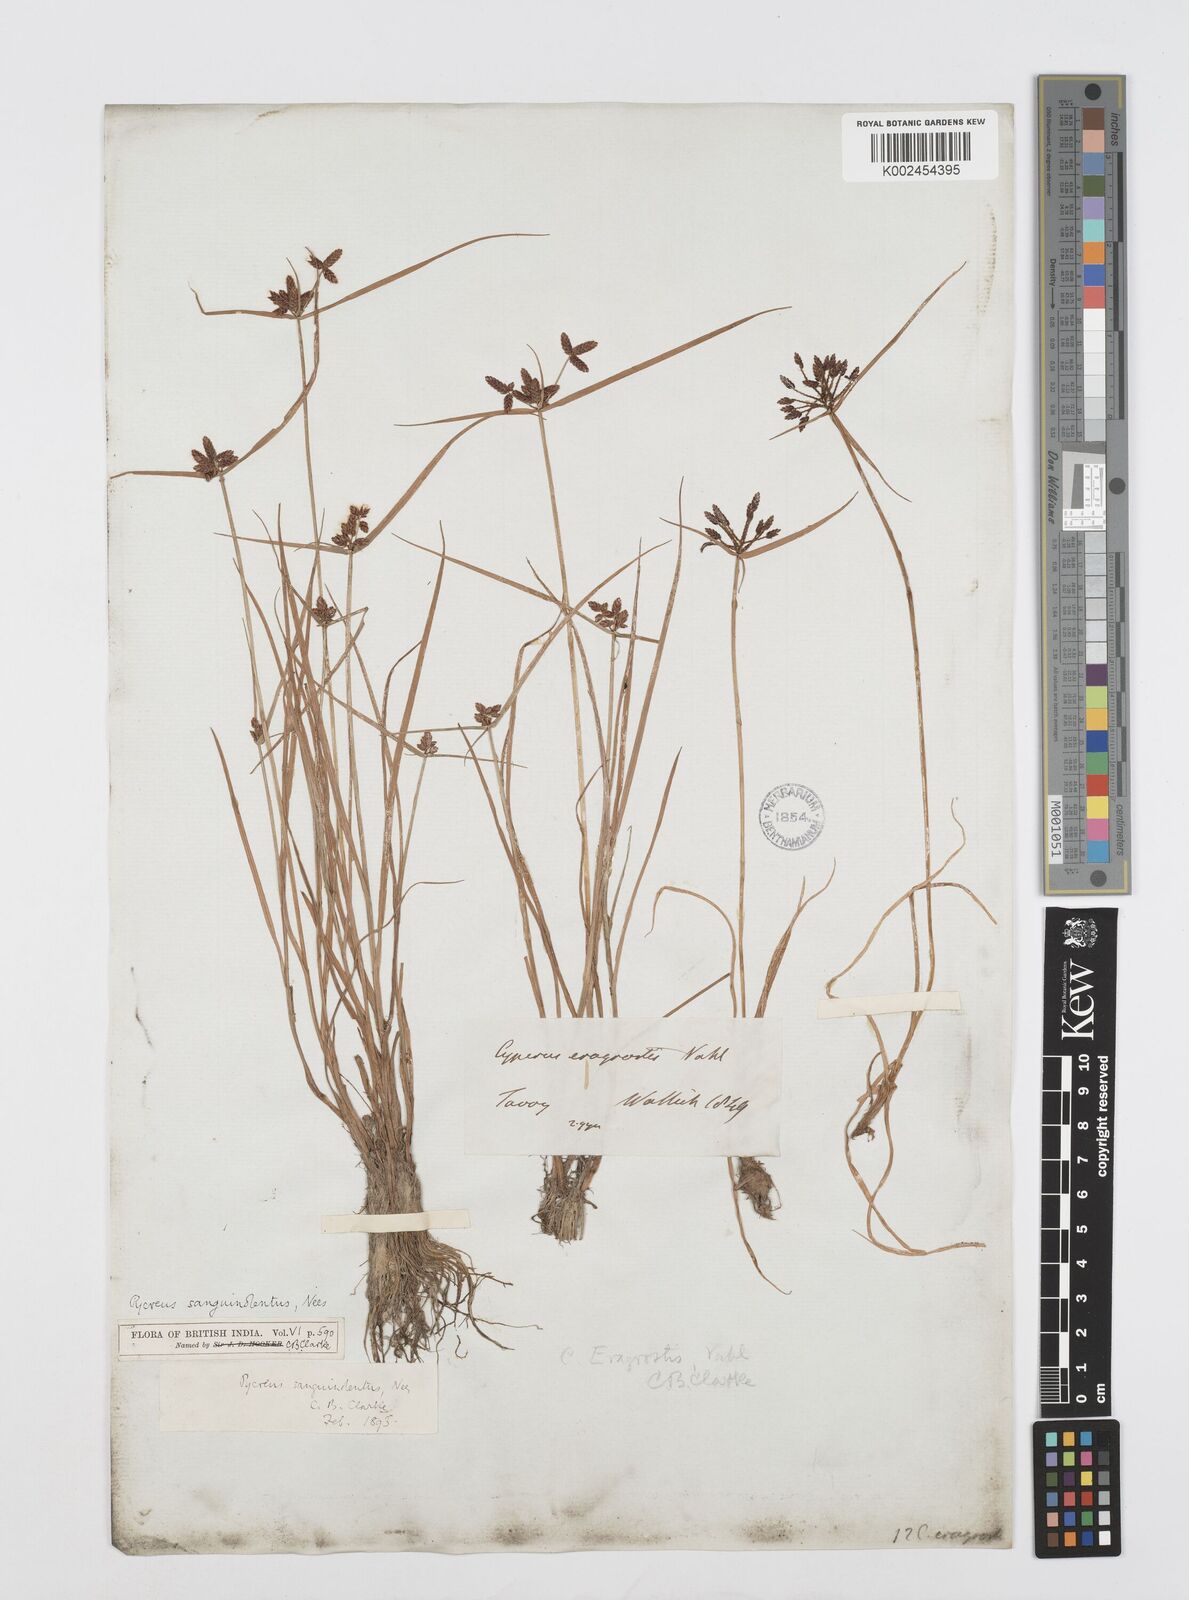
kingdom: Plantae
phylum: Tracheophyta
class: Liliopsida
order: Poales
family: Cyperaceae
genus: Cyperus
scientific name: Cyperus sanguinolentus
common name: Purpleglume flatsedge
